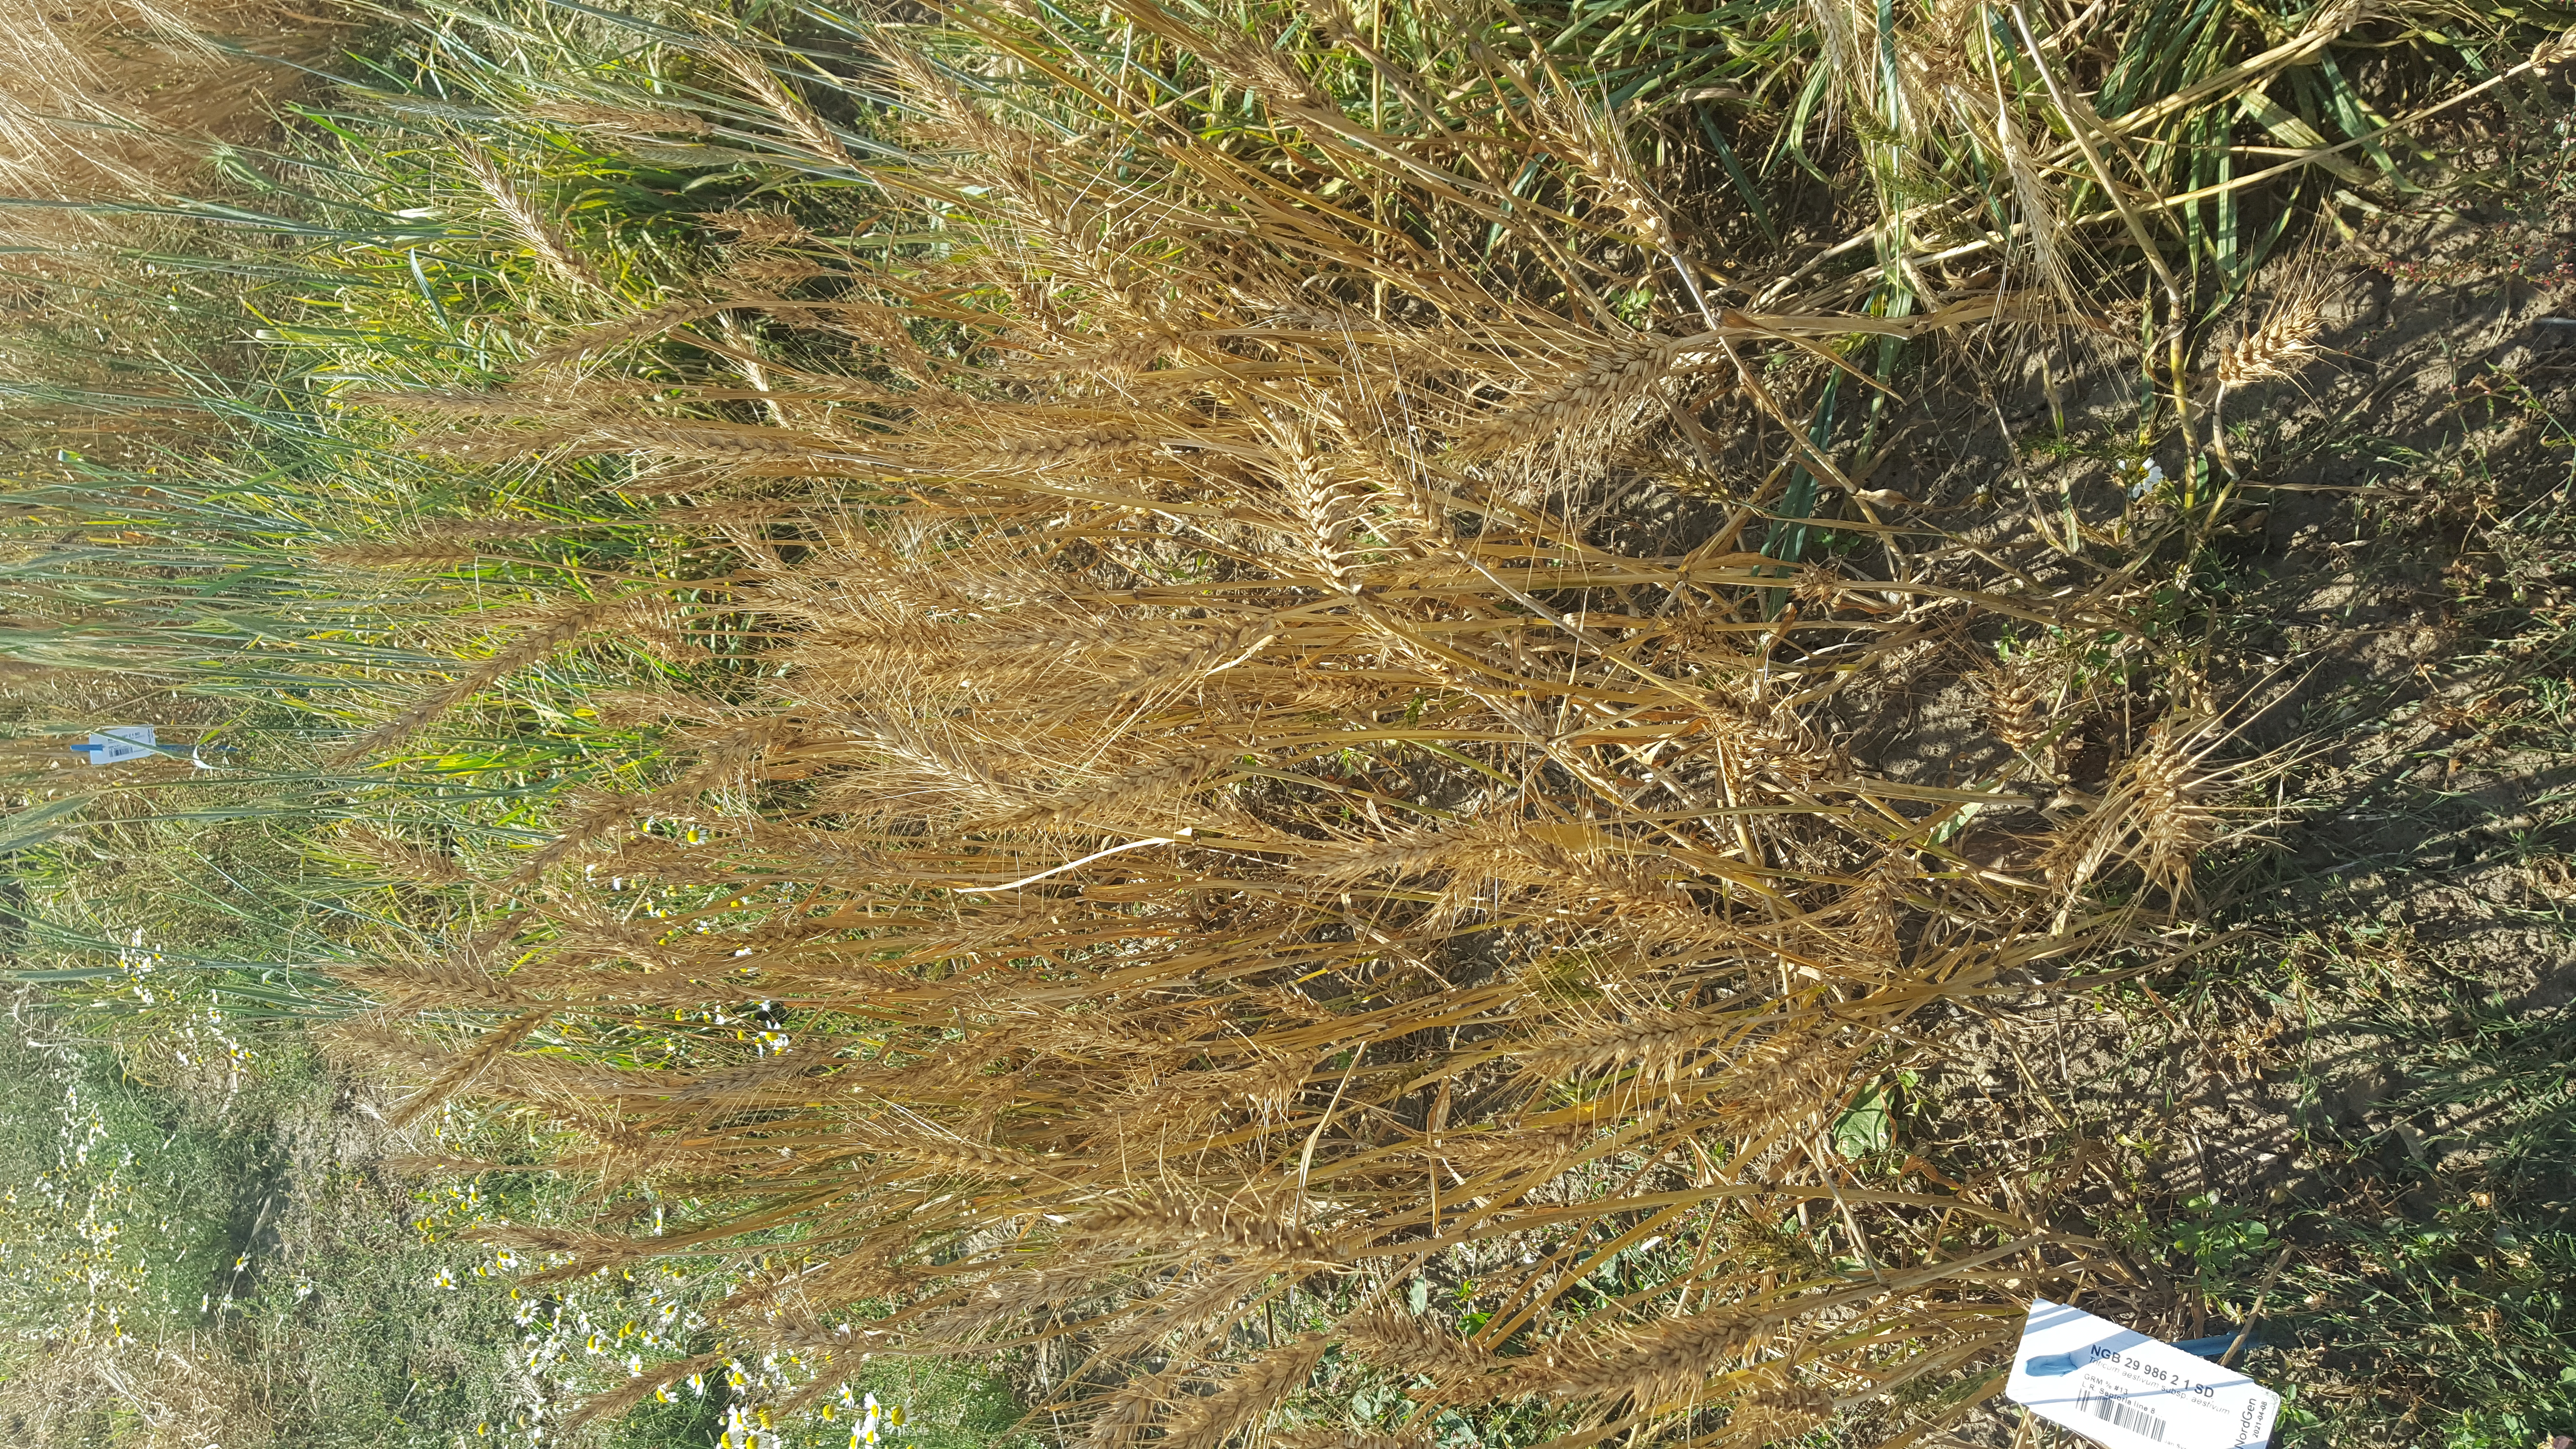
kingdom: Plantae
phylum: Tracheophyta
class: Liliopsida
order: Poales
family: Poaceae
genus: Triticum
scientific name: Triticum aestivum
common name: Common wheat
